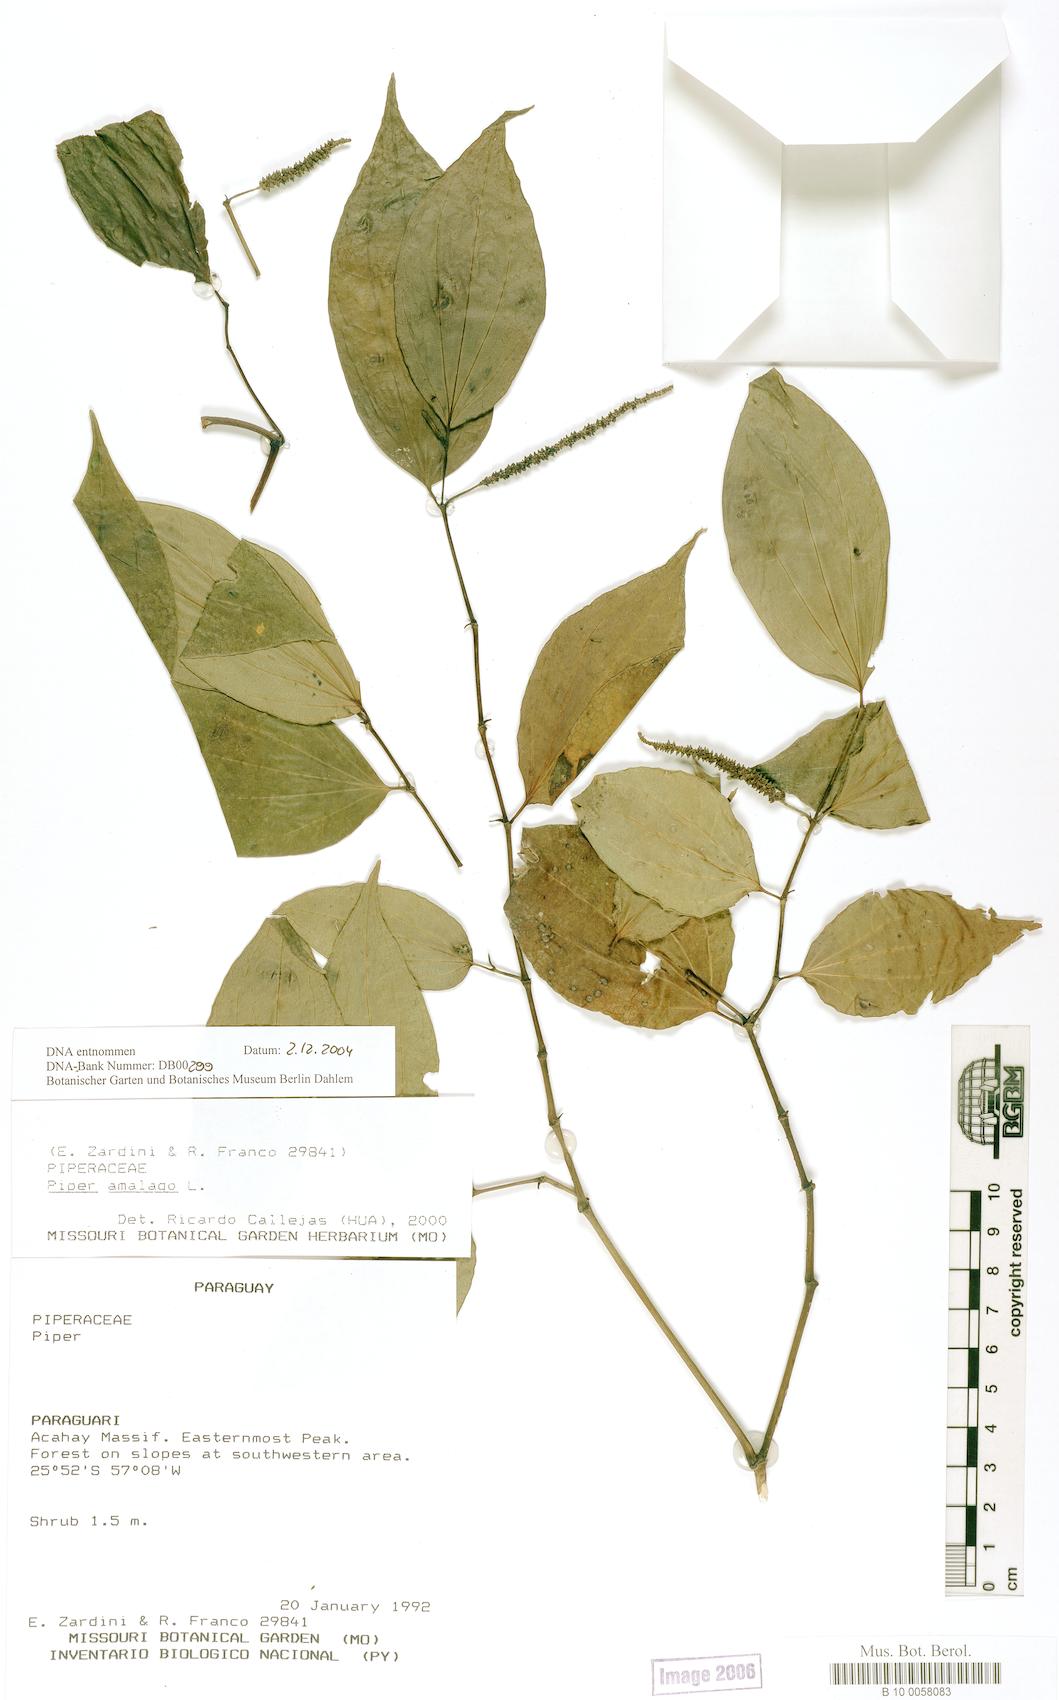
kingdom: Plantae
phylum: Tracheophyta
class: Magnoliopsida
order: Piperales
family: Piperaceae
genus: Piper
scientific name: Piper orthostachyum
